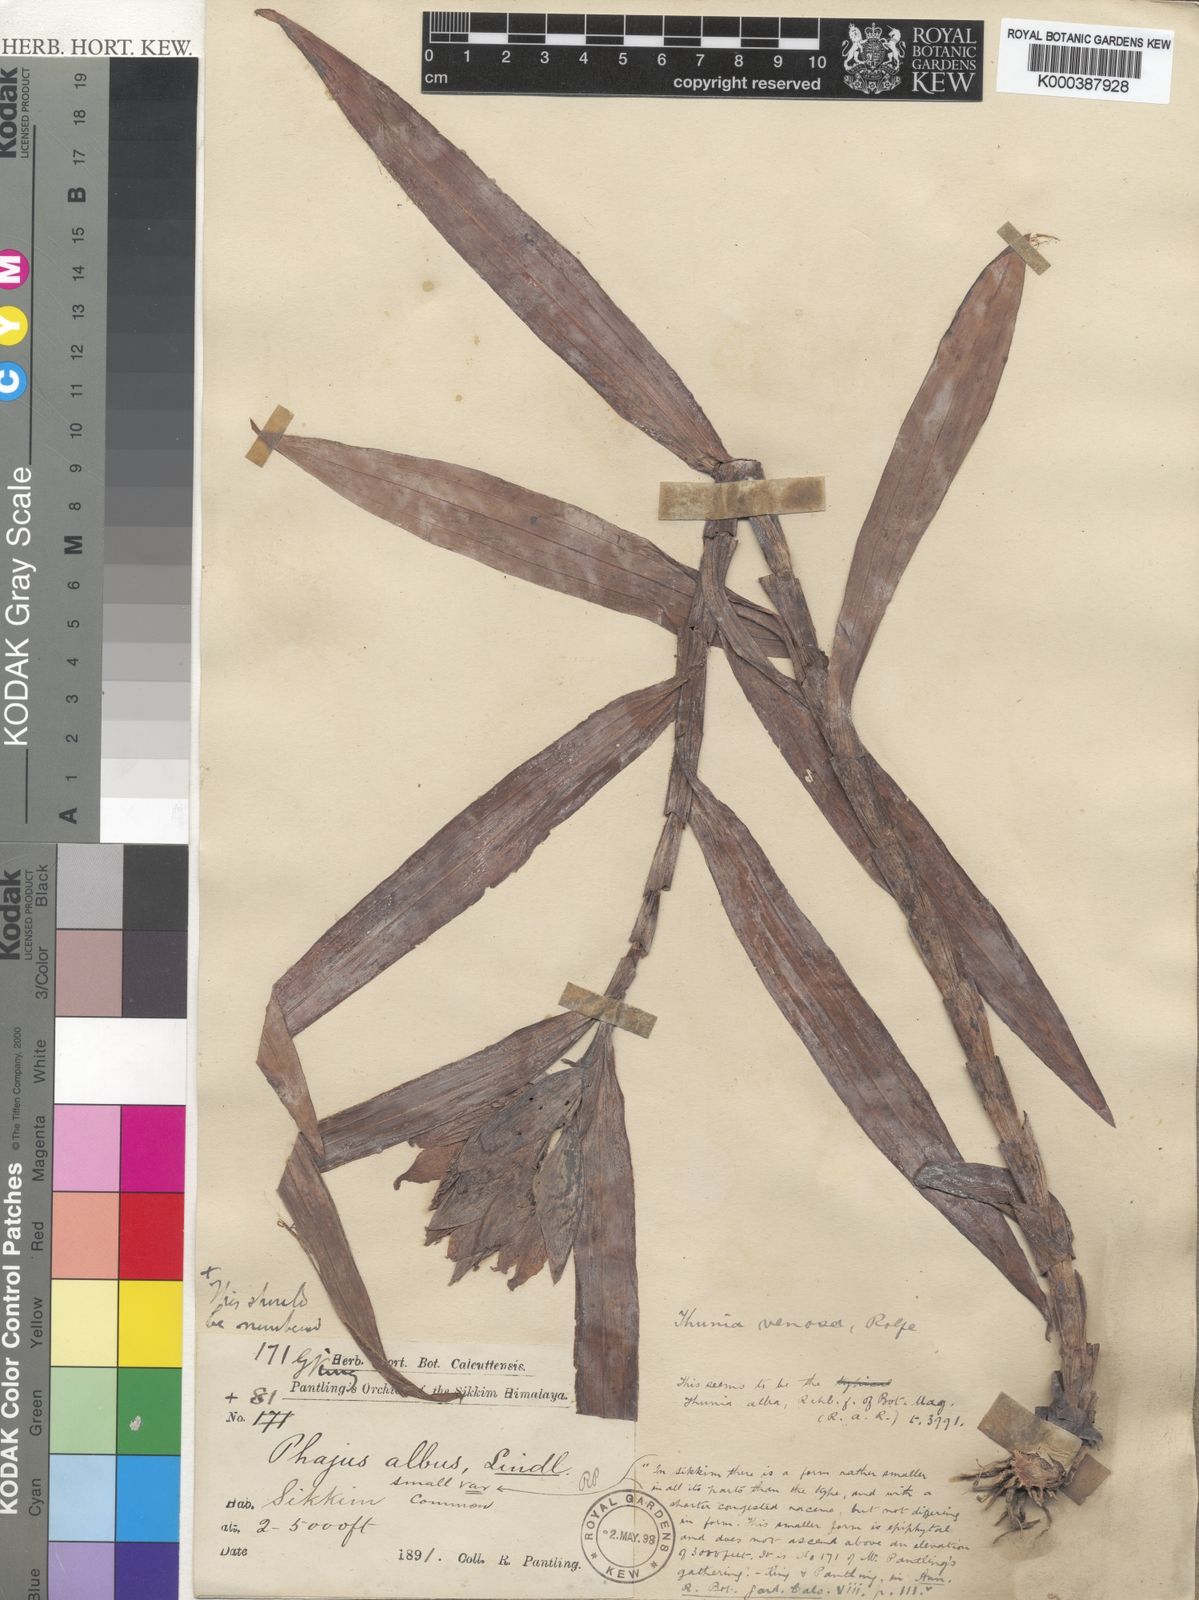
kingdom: Plantae
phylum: Tracheophyta
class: Liliopsida
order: Asparagales
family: Orchidaceae
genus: Thunia
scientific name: Thunia alba
